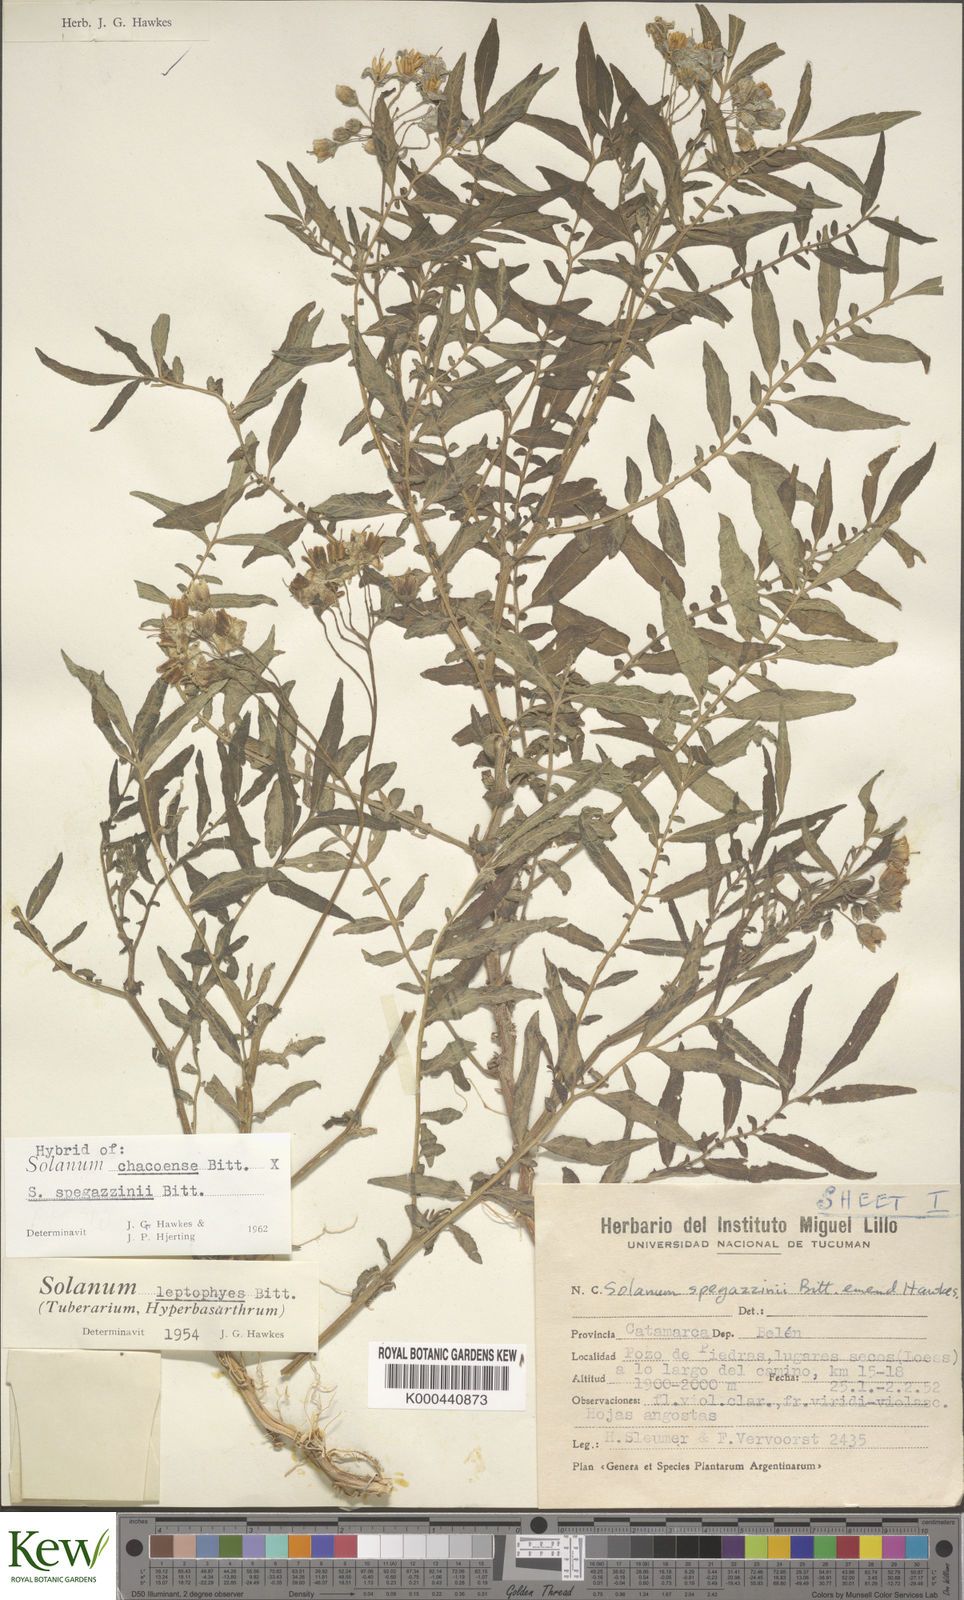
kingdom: Plantae
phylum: Tracheophyta
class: Magnoliopsida
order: Solanales
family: Solanaceae
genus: Solanum
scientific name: Solanum chacoense
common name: Chaco potato
